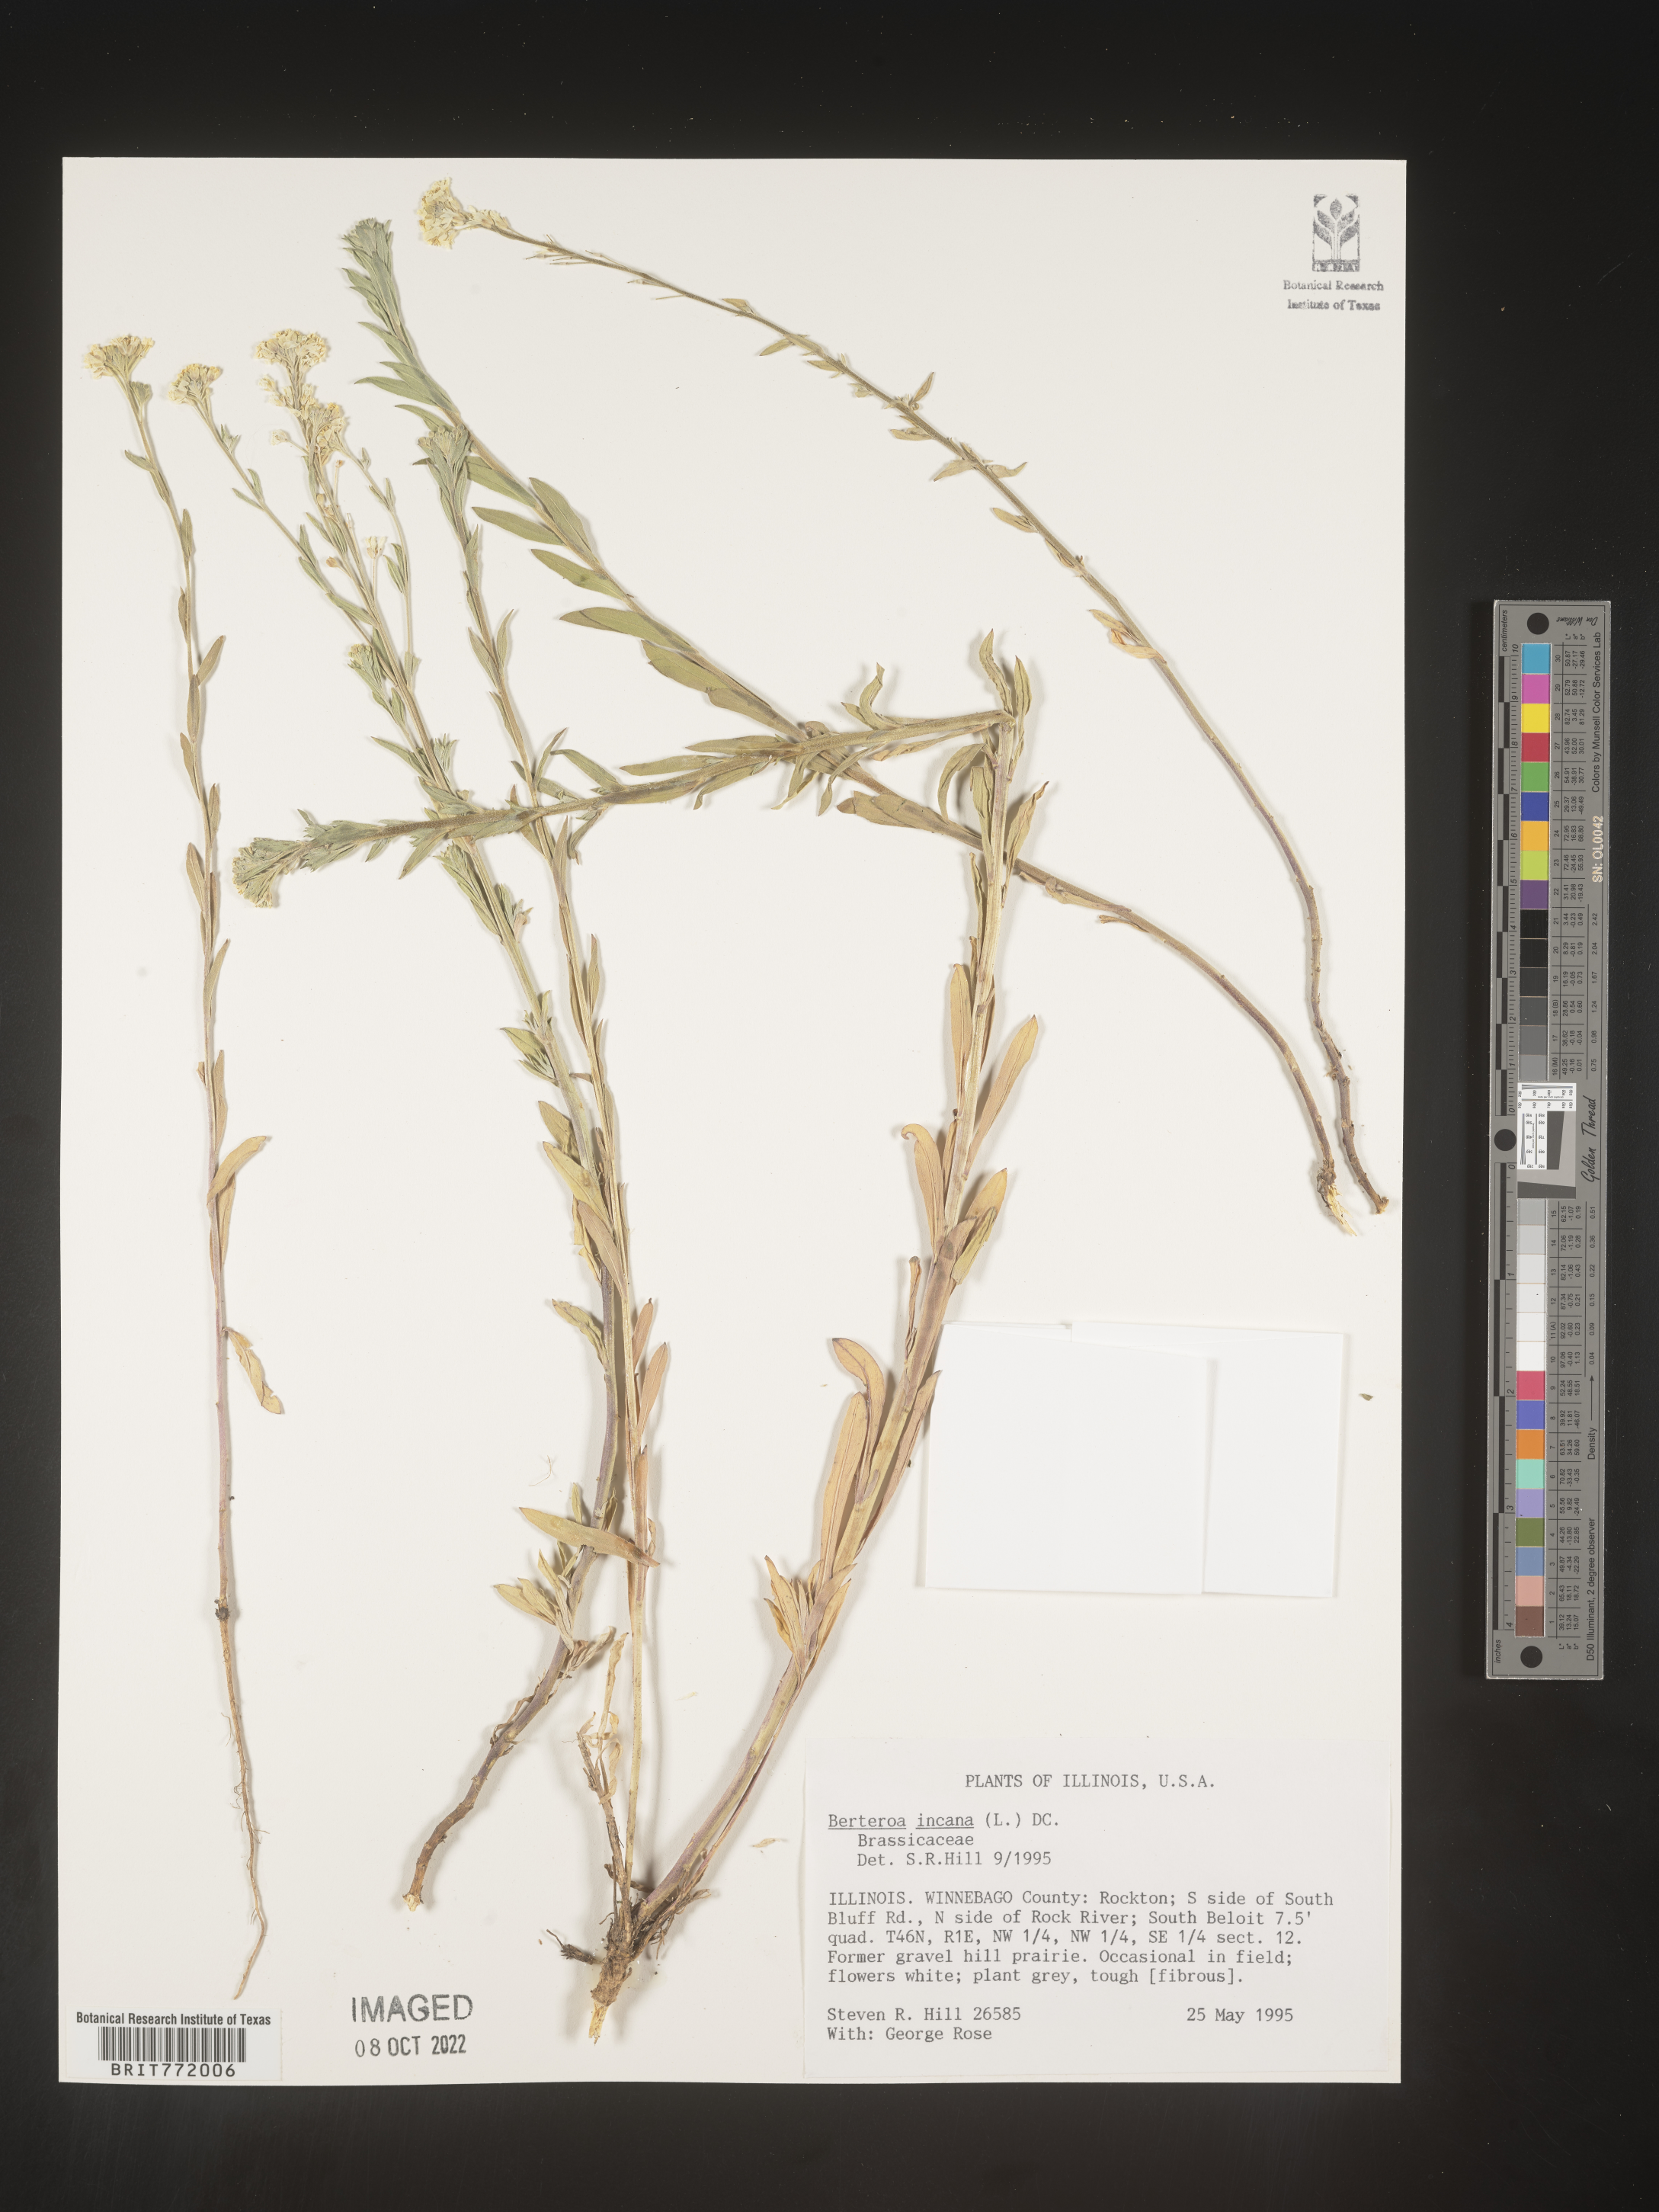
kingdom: Plantae
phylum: Tracheophyta
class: Magnoliopsida
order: Brassicales
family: Brassicaceae
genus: Berteroa
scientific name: Berteroa incana
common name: Hoary alison
